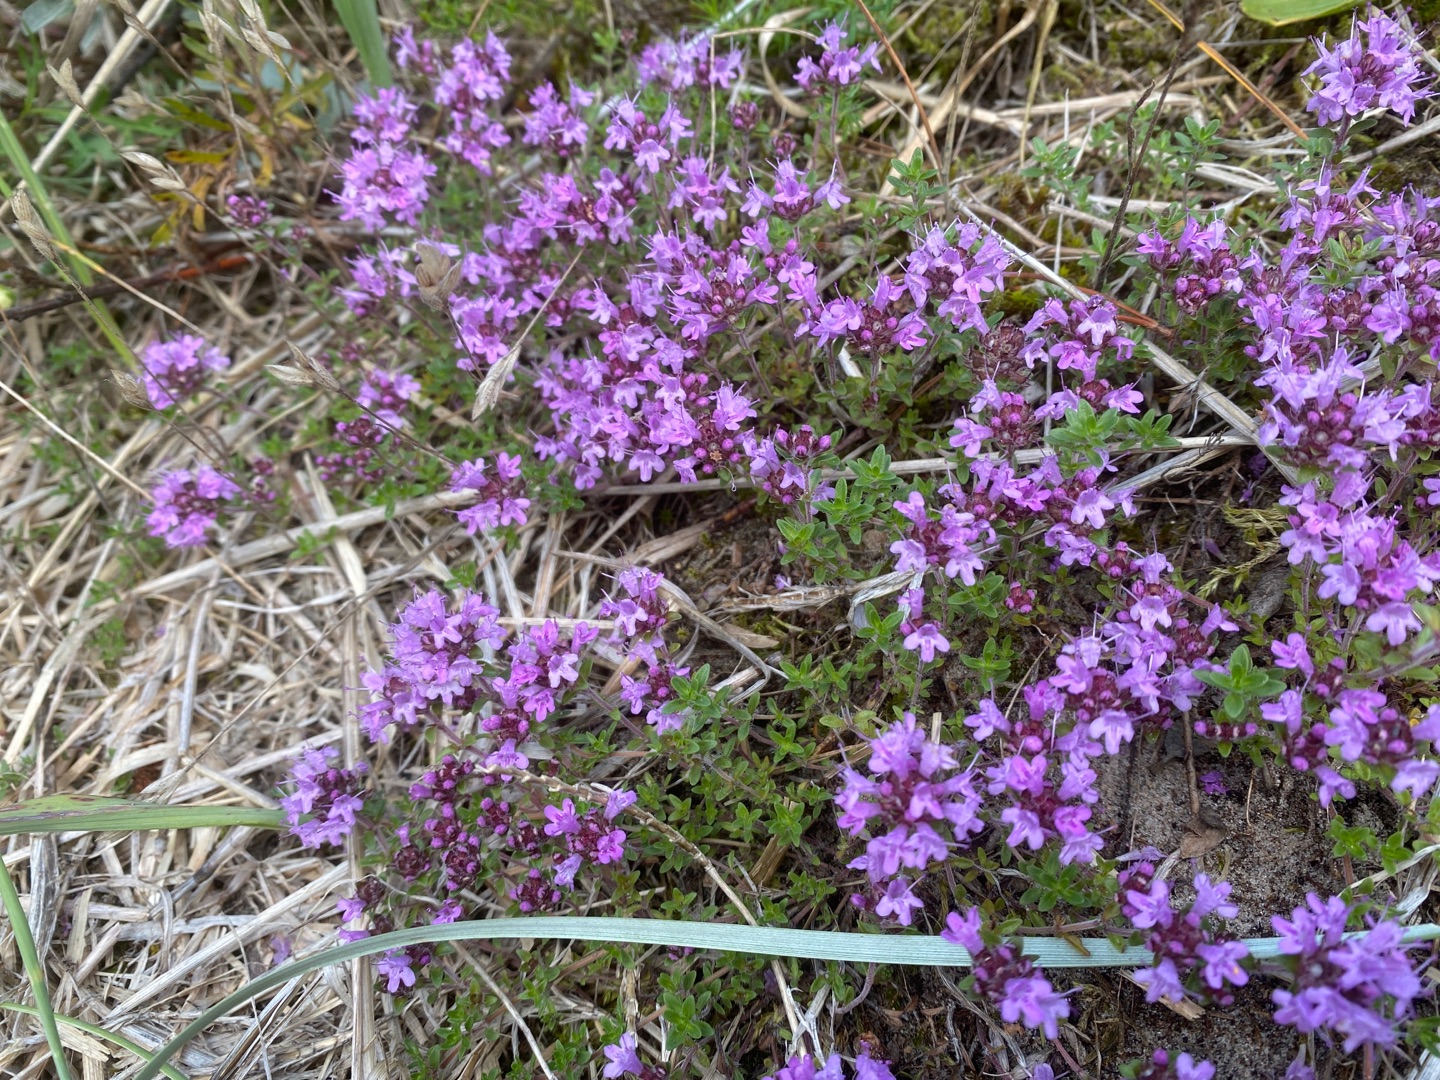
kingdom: Plantae
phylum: Tracheophyta
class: Magnoliopsida
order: Lamiales
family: Lamiaceae
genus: Thymus
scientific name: Thymus serpyllum
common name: Smalbladet timian
